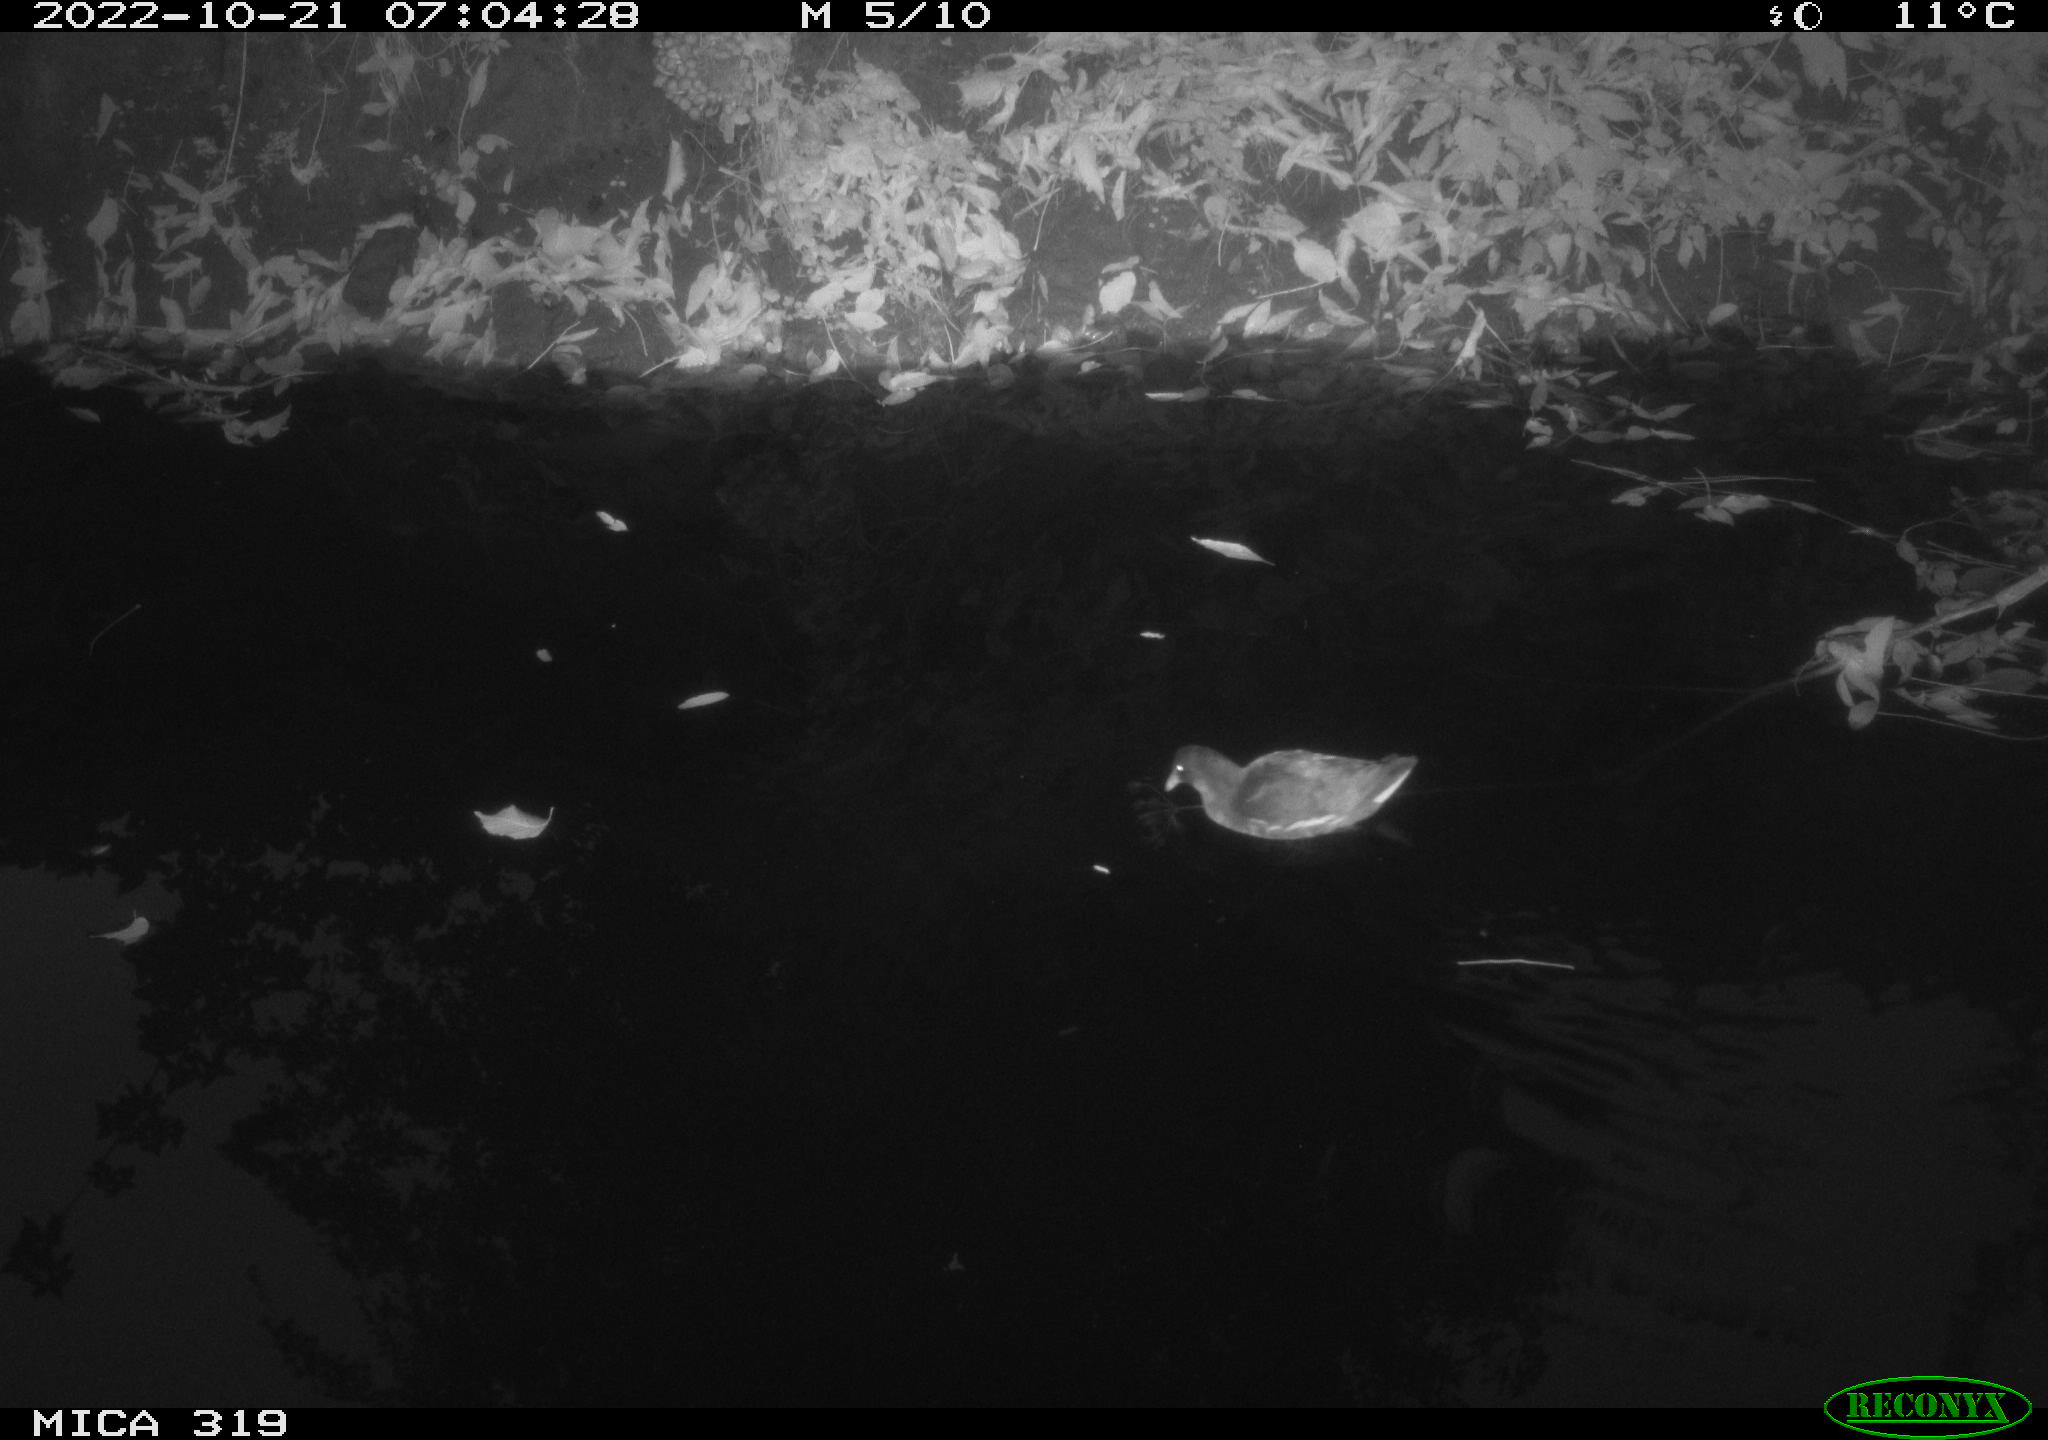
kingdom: Animalia
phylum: Chordata
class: Aves
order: Gruiformes
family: Rallidae
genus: Gallinula
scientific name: Gallinula chloropus
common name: Common moorhen
